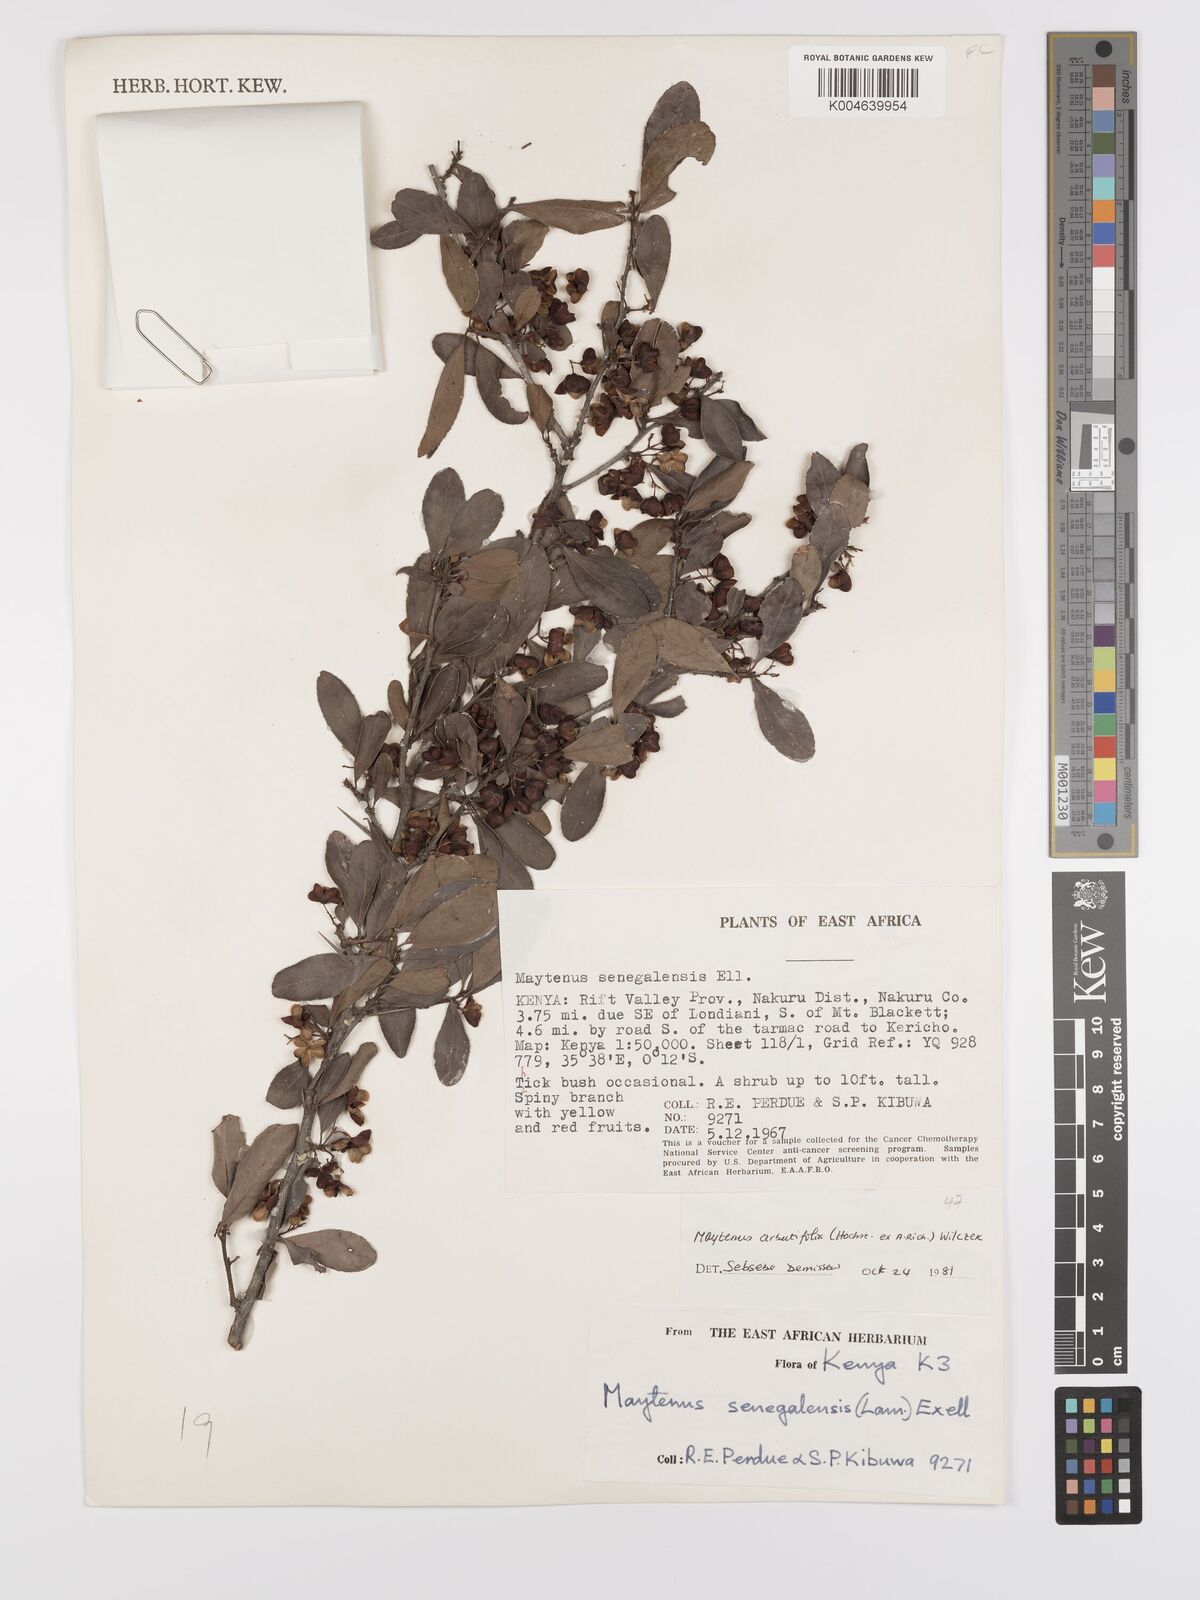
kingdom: Plantae
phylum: Tracheophyta
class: Magnoliopsida
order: Celastrales
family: Celastraceae
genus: Gymnosporia
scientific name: Gymnosporia arbutifolia
